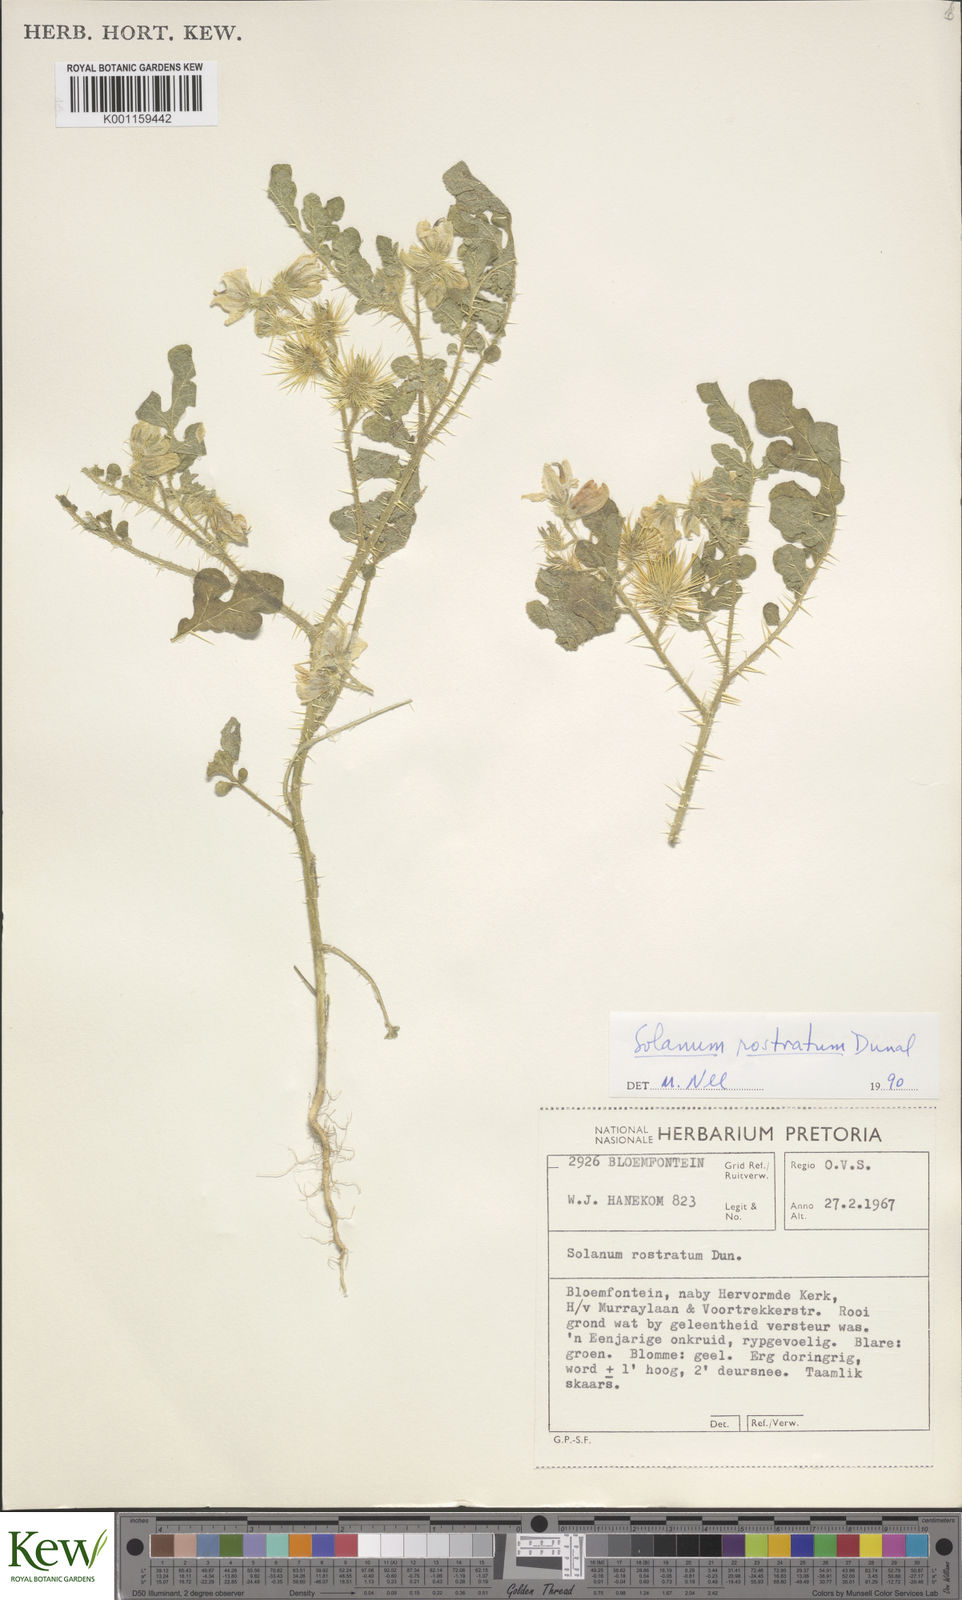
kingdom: Plantae
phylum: Tracheophyta
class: Magnoliopsida
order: Solanales
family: Solanaceae
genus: Solanum
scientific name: Solanum angustifolium
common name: Buffalobur nightshade
